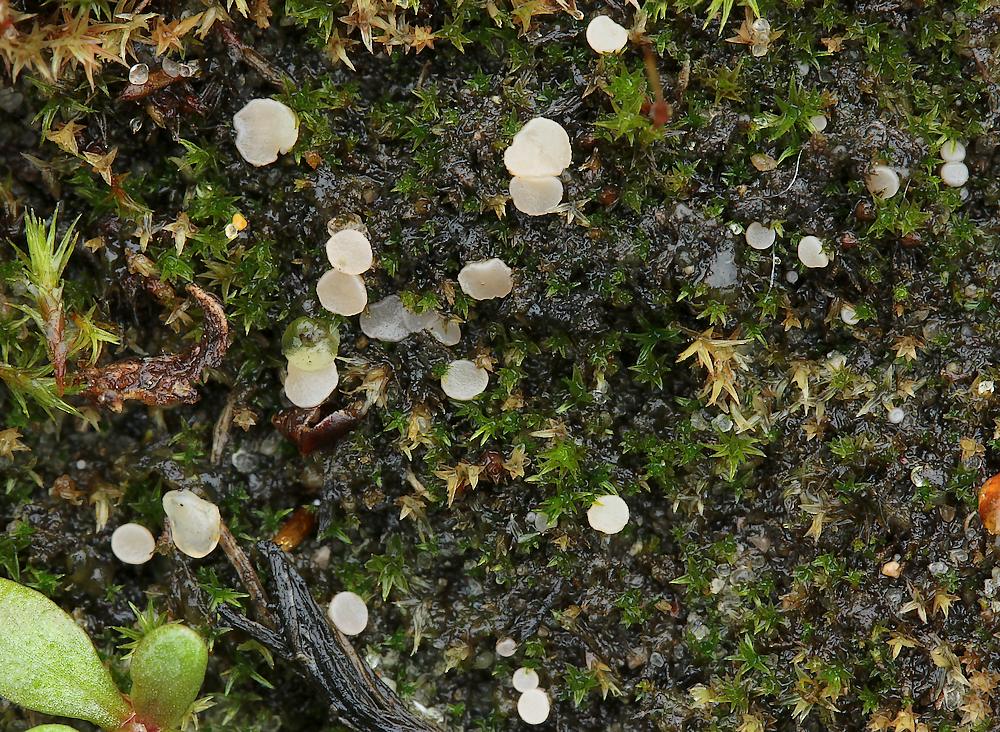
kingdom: Fungi
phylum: Ascomycota
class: Leotiomycetes
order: Helotiales
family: Helotiaceae
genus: Bryoscyphus
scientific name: Bryoscyphus dicrani
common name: bladmos-stilkskive
